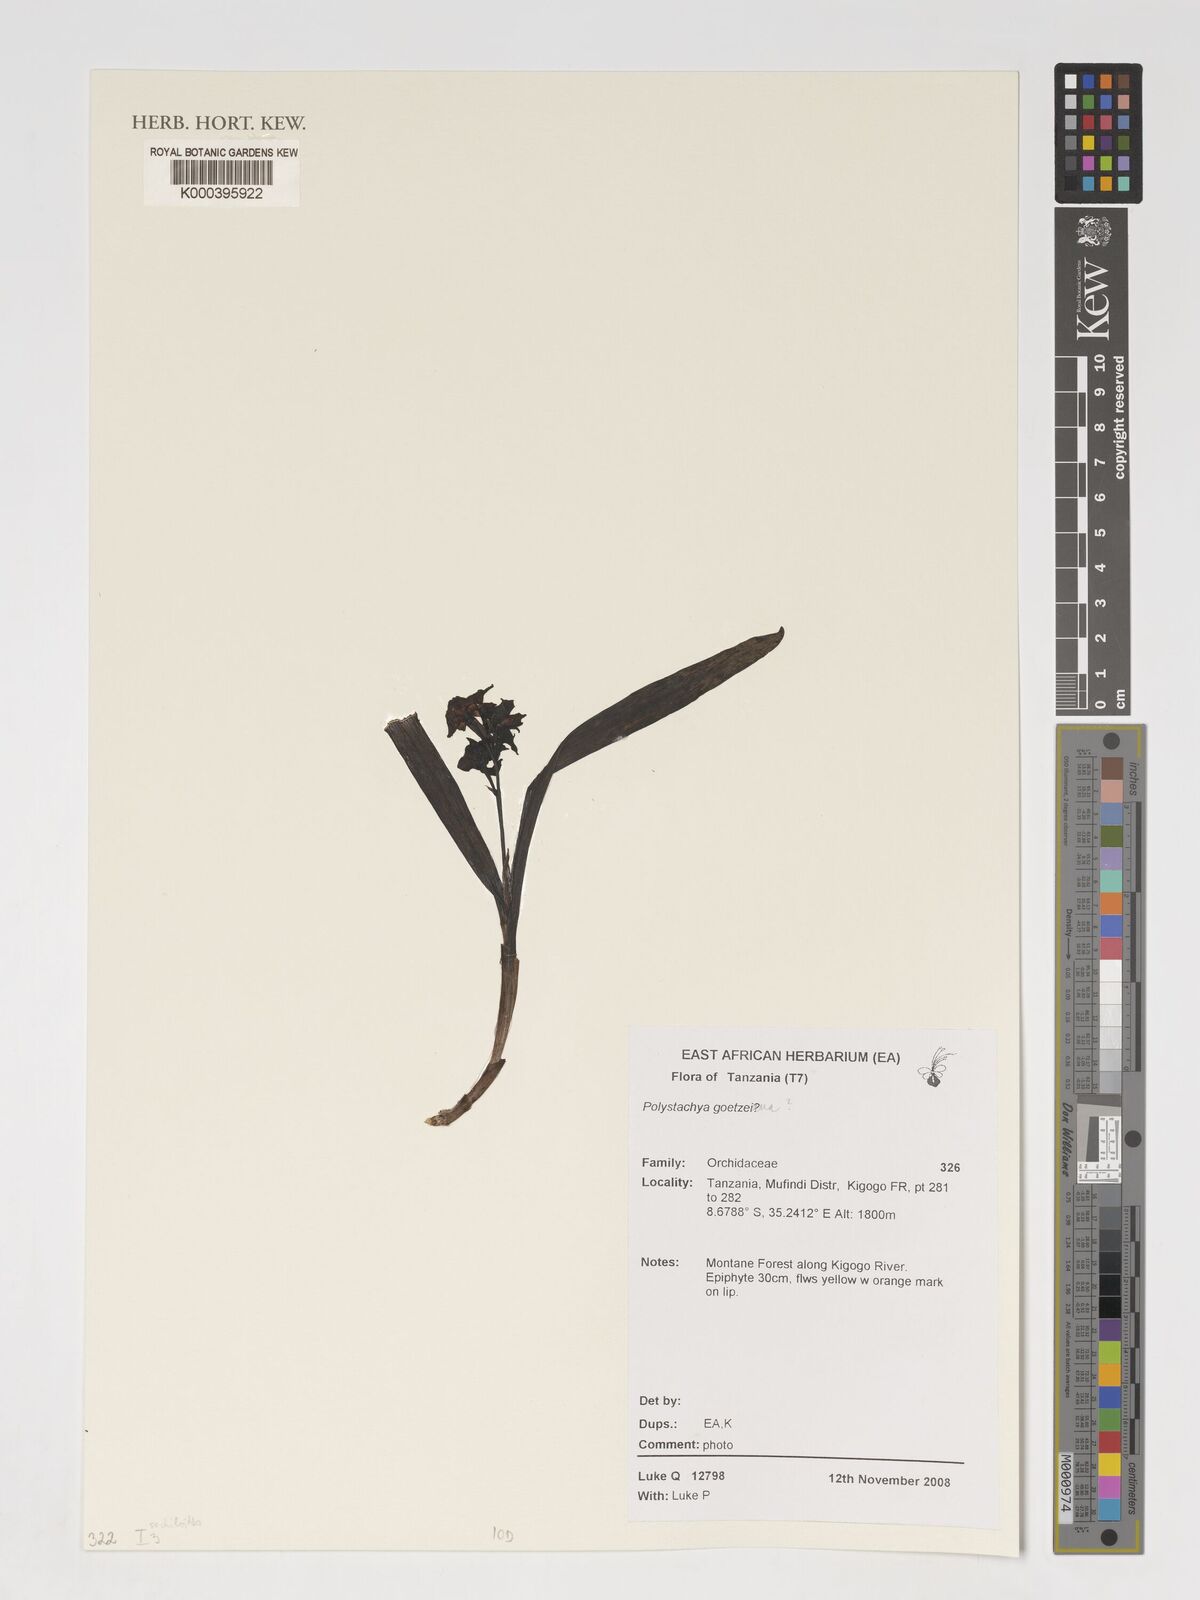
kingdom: Plantae
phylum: Tracheophyta
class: Liliopsida
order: Asparagales
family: Orchidaceae
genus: Polystachya
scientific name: Polystachya goetzeana
